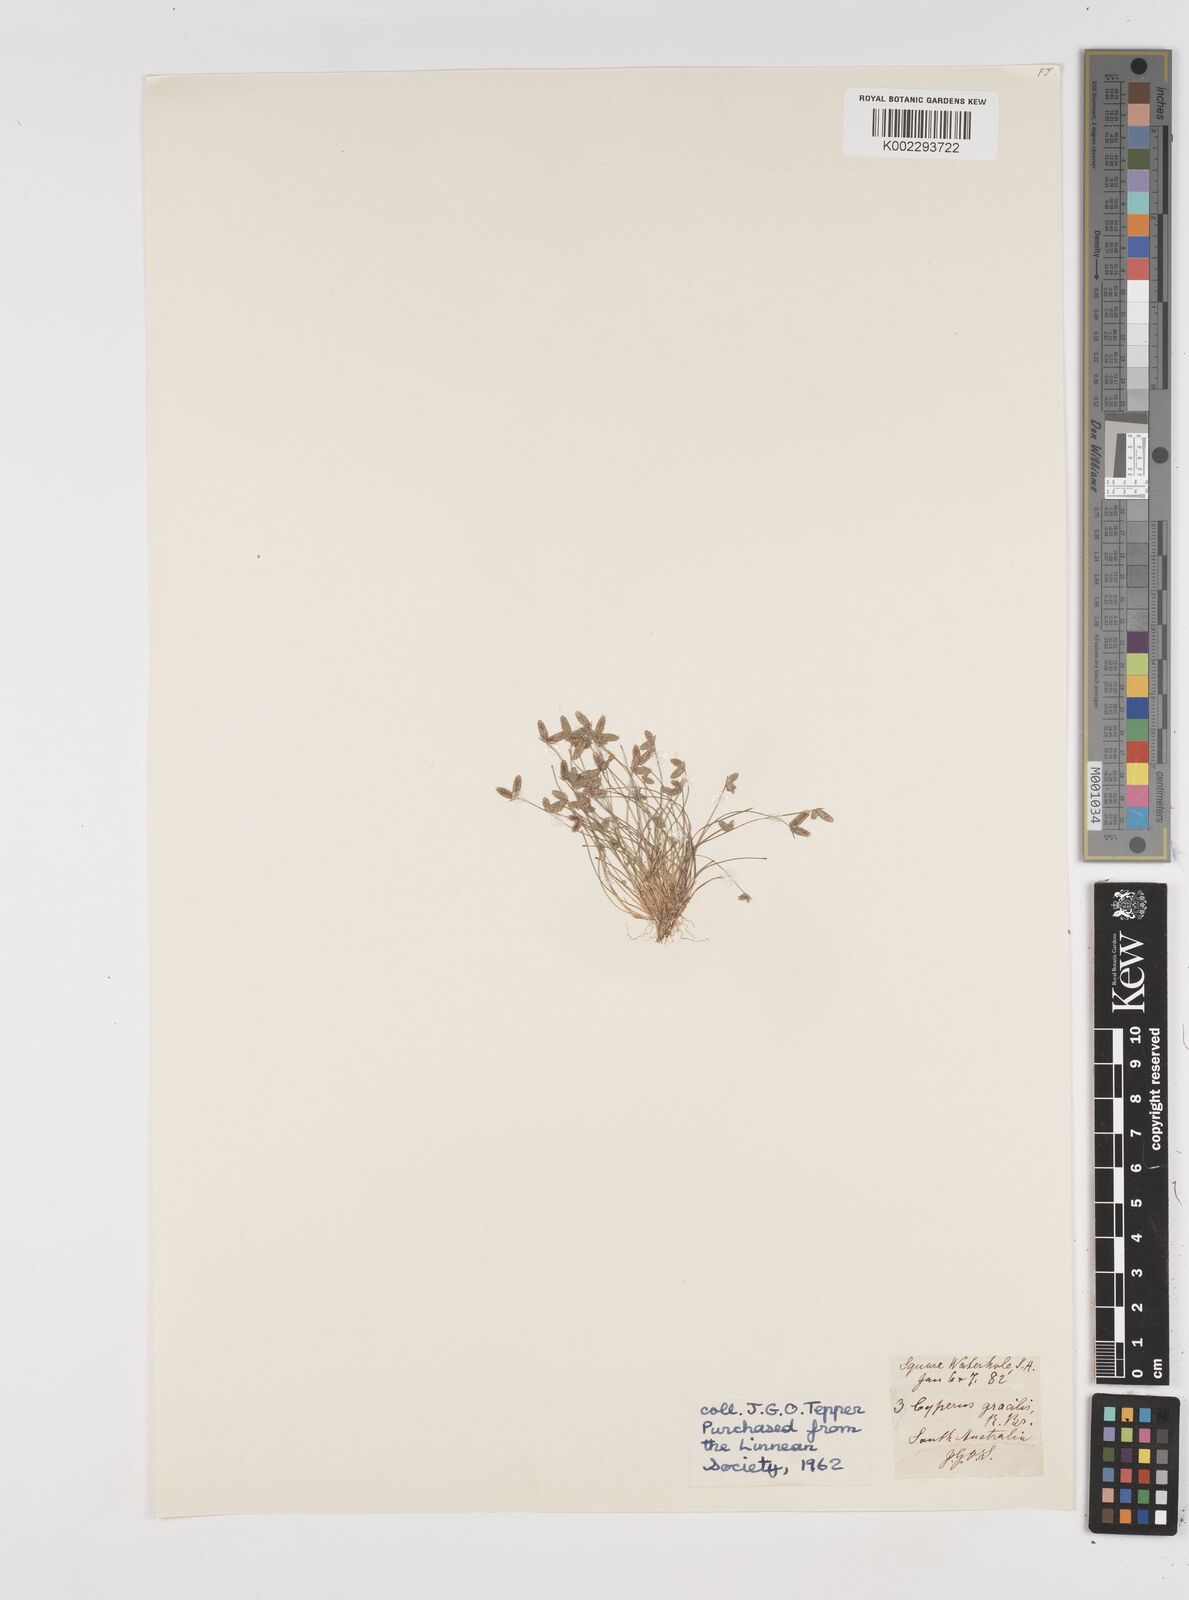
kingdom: Plantae
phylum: Tracheophyta
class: Liliopsida
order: Poales
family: Cyperaceae
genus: Isolepis
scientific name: Isolepis levynsiana
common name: Sedge
